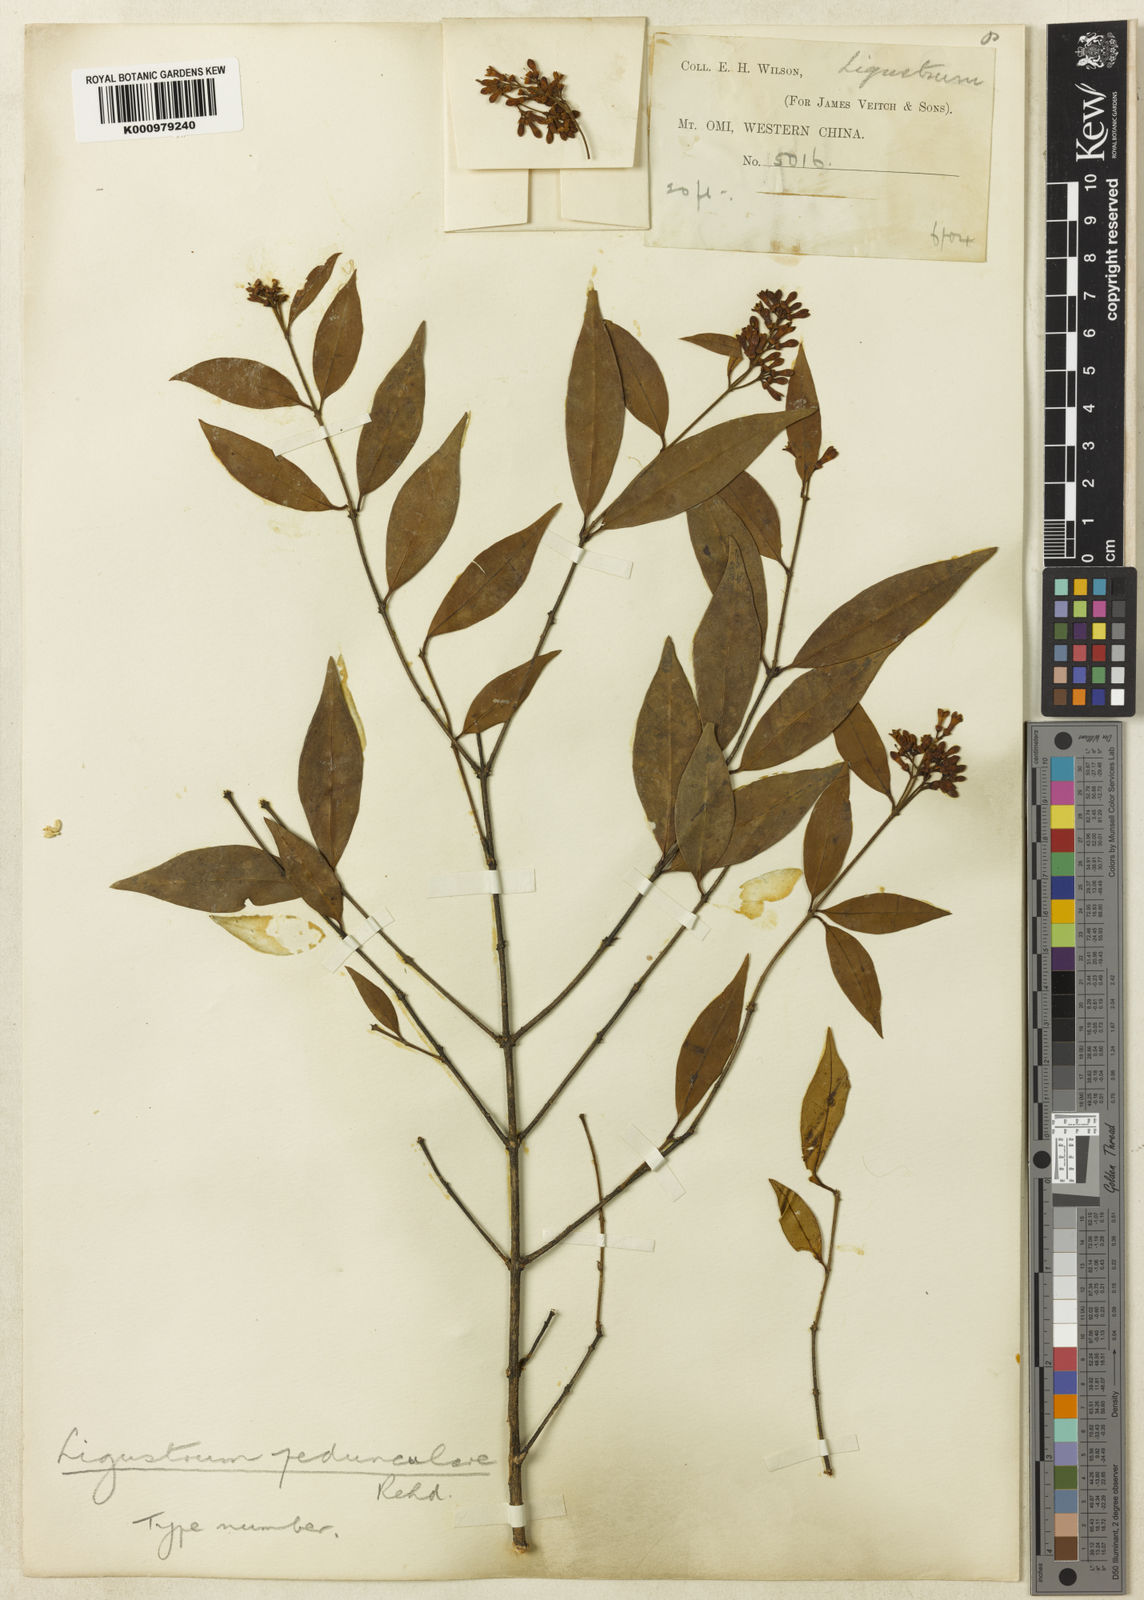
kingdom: Plantae
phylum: Tracheophyta
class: Magnoliopsida
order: Lamiales
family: Oleaceae
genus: Ligustrum
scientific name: Ligustrum pricei
